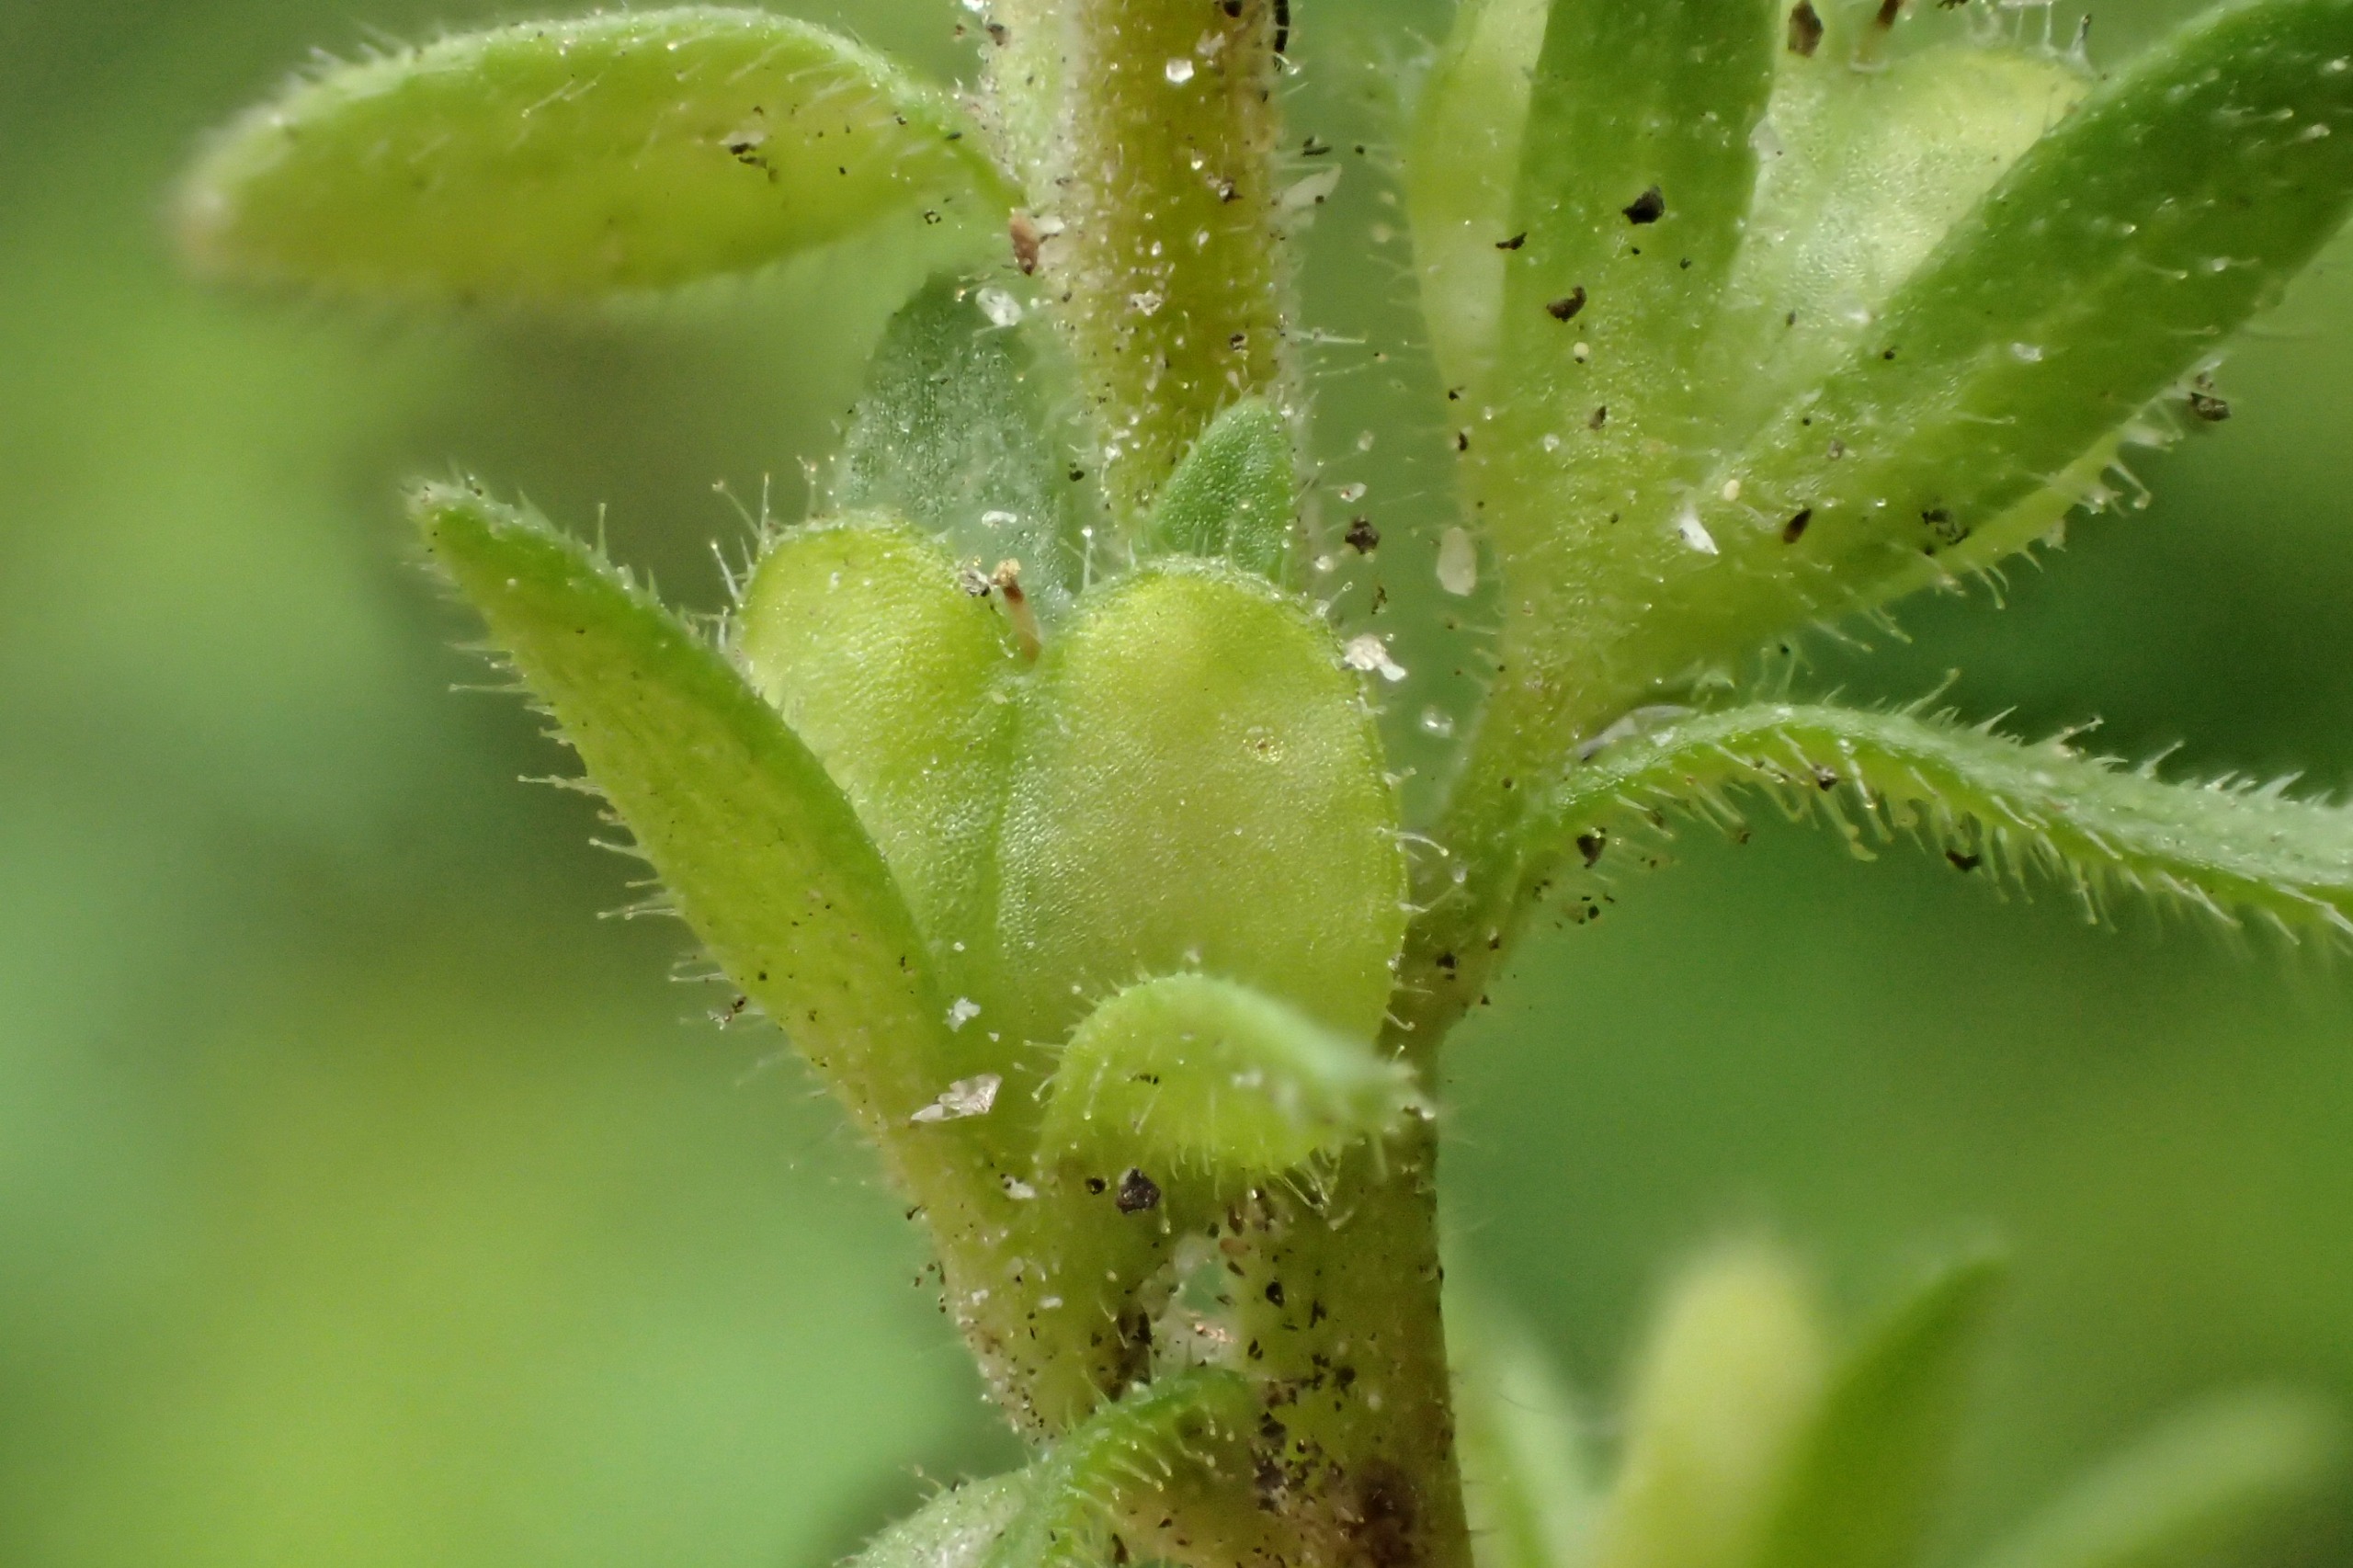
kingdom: Plantae
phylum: Tracheophyta
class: Magnoliopsida
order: Lamiales
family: Plantaginaceae
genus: Veronica
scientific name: Veronica arvensis
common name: Mark-ærenpris
